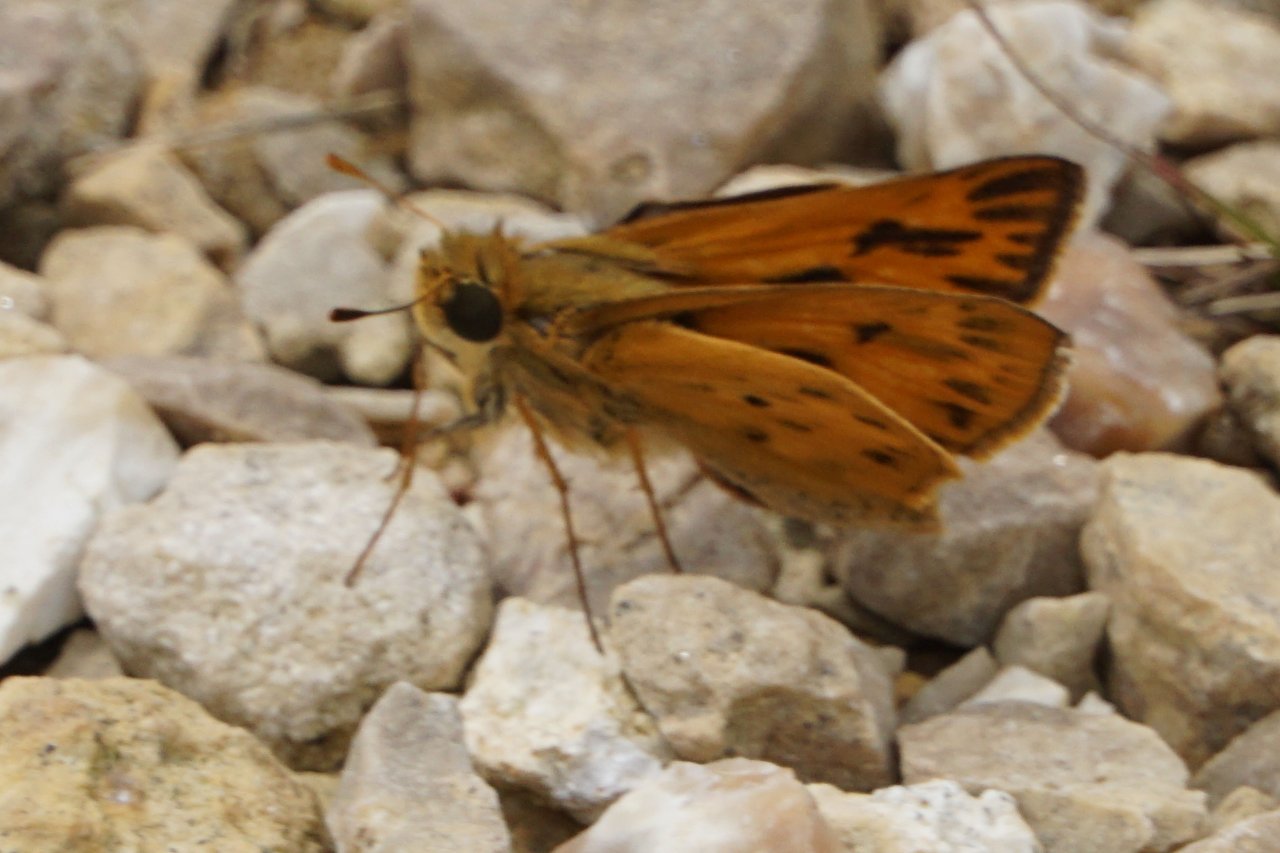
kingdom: Animalia
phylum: Arthropoda
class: Insecta
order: Lepidoptera
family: Hesperiidae
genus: Hylephila
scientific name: Hylephila phyleus
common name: Fiery Skipper
